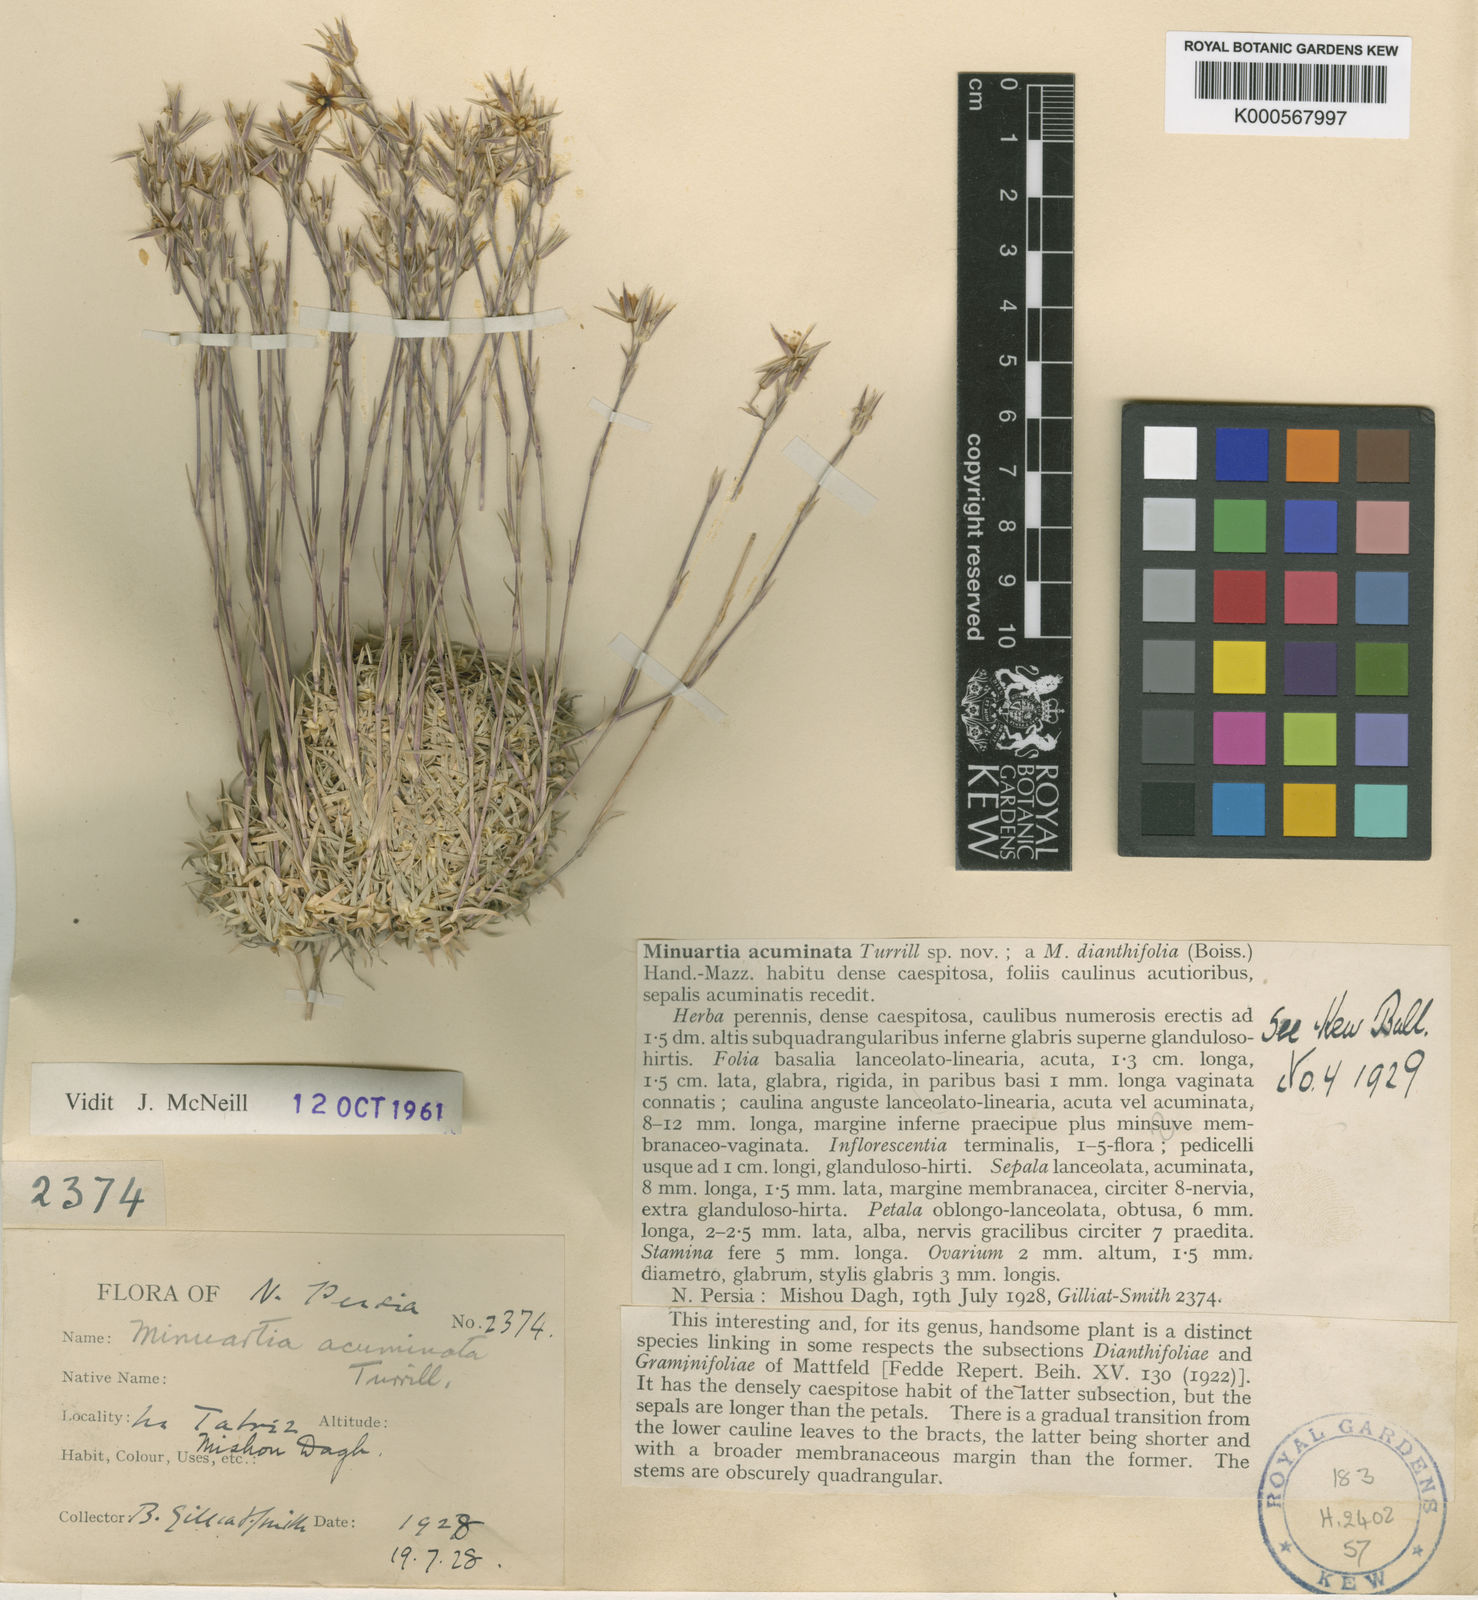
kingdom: Plantae
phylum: Tracheophyta
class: Magnoliopsida
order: Caryophyllales
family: Caryophyllaceae
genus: Minuartiella
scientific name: Minuartiella acuminata
